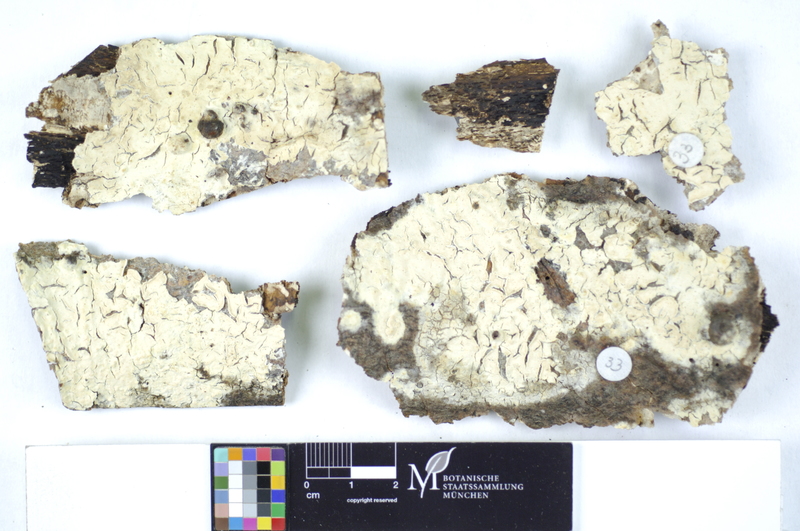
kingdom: Fungi
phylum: Basidiomycota
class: Agaricomycetes
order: Polyporales
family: Hyphodermataceae
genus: Mutatoderma
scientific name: Mutatoderma mutatum
